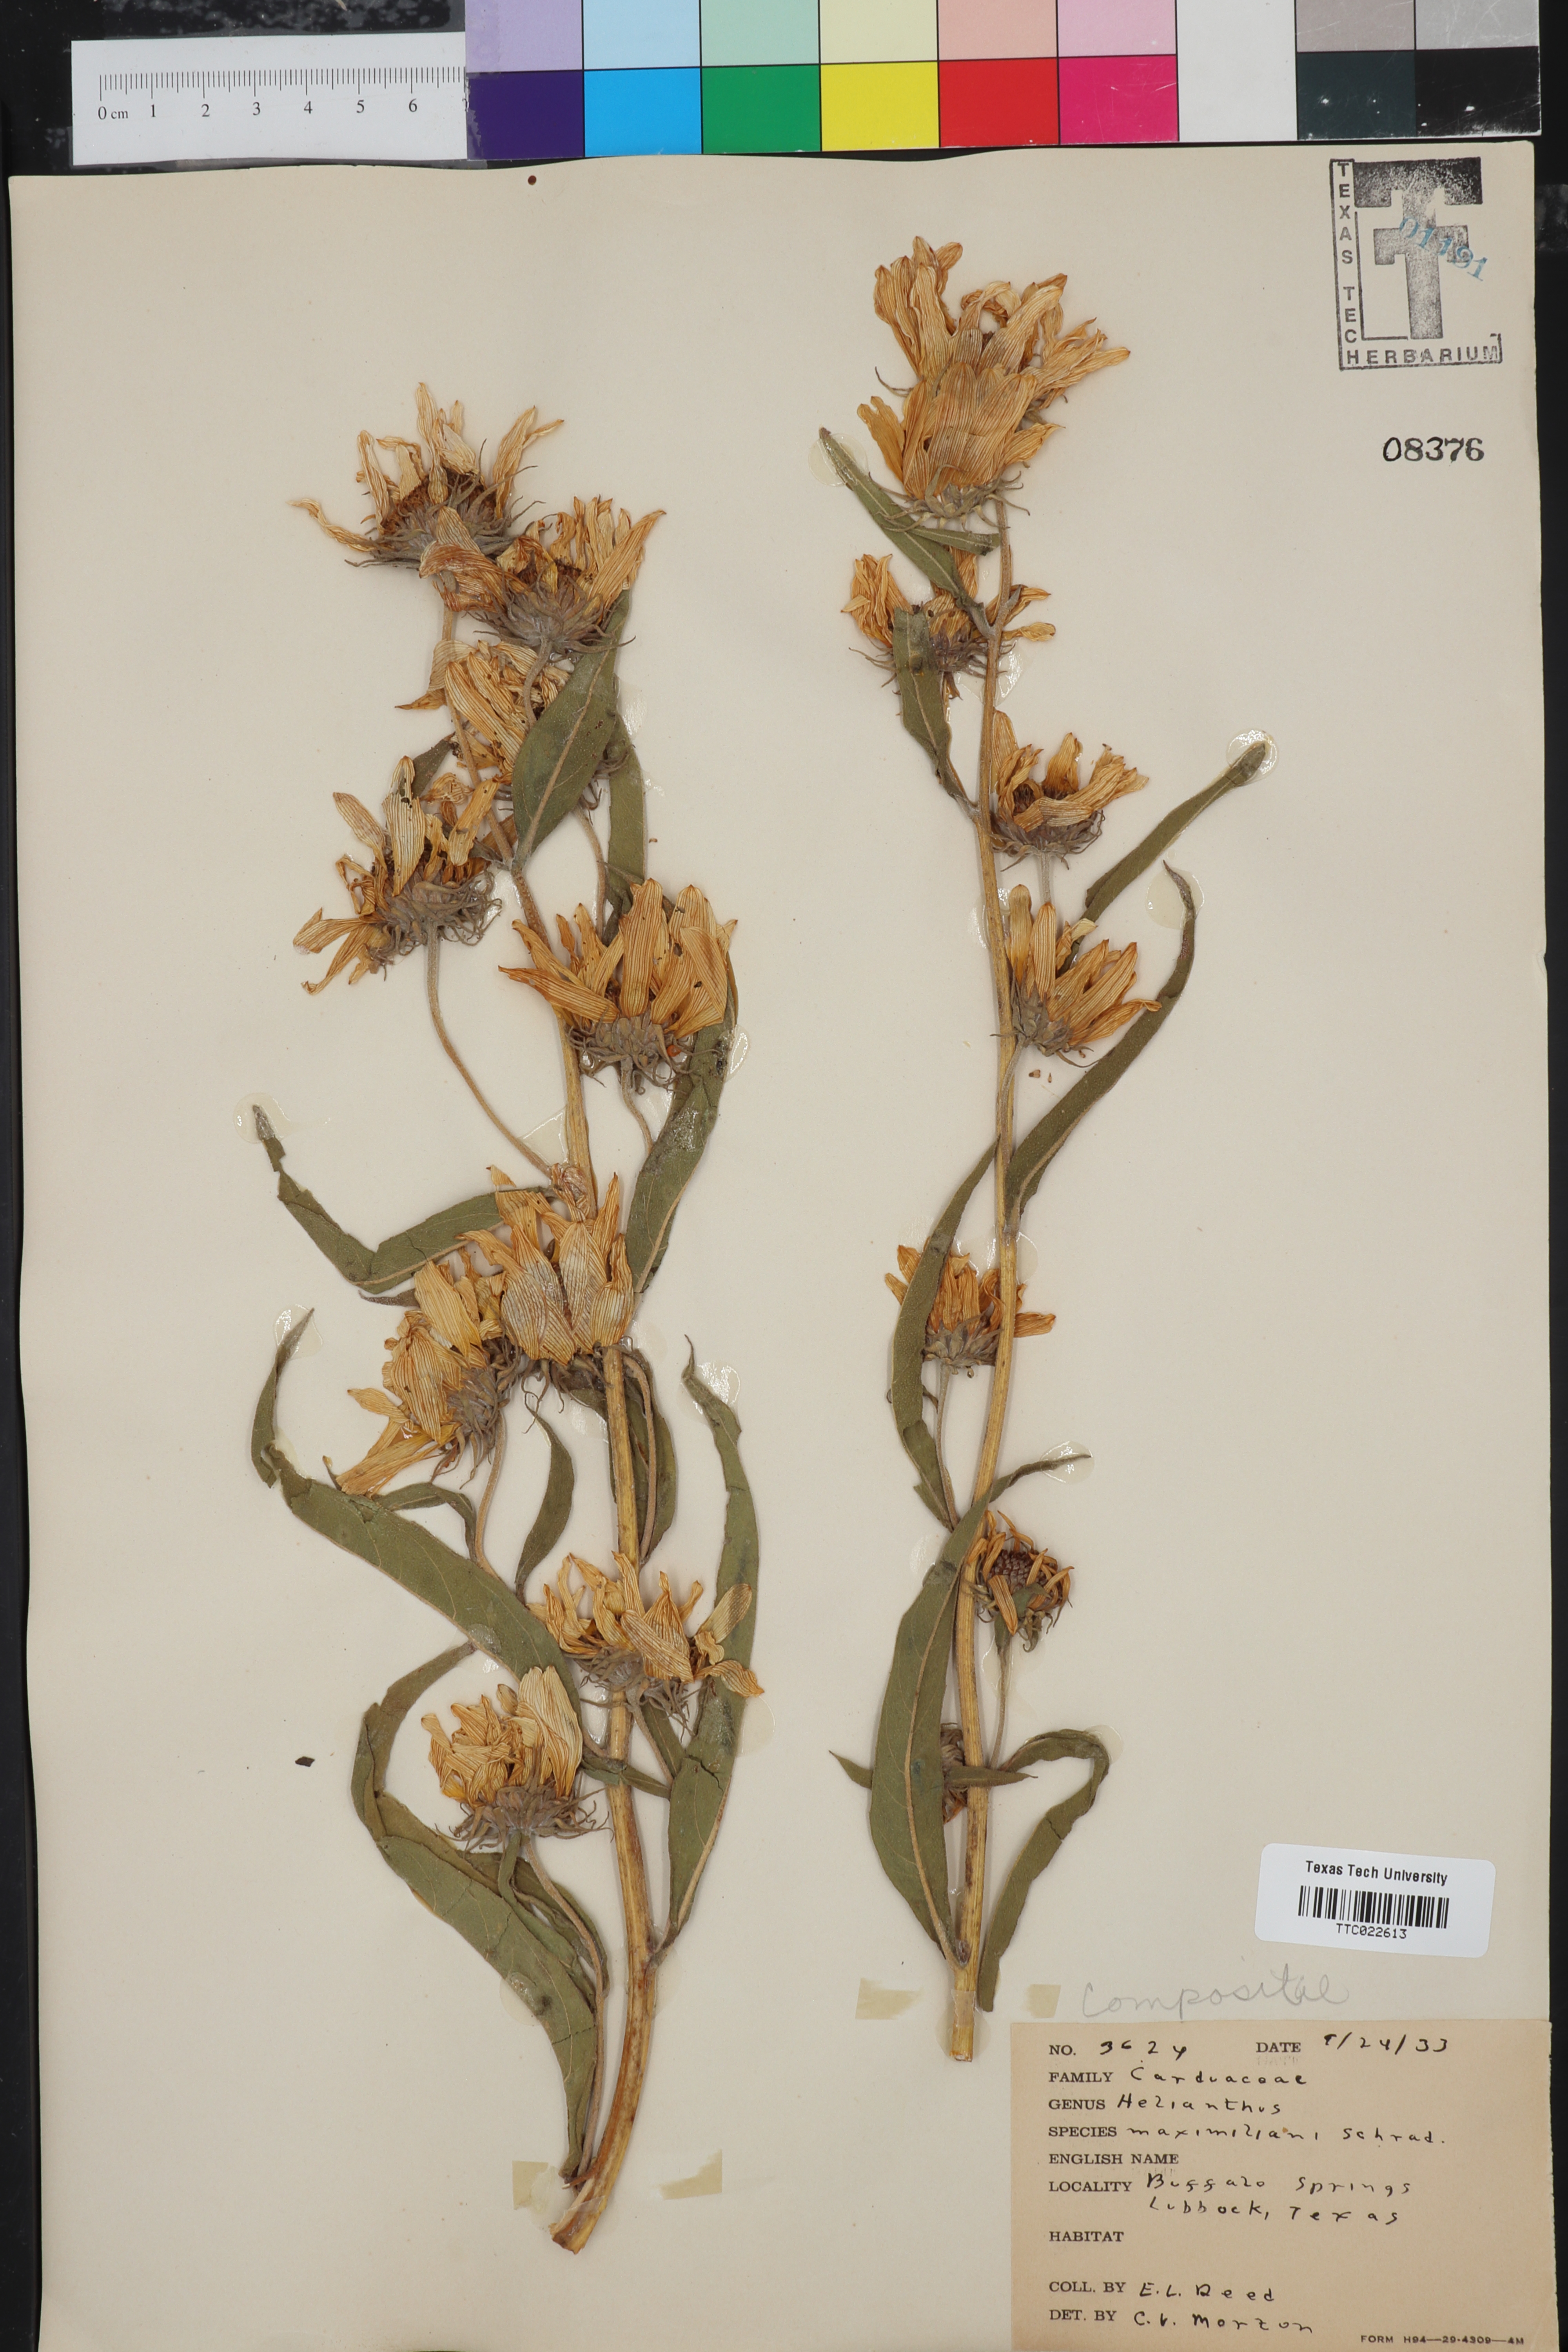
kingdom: Plantae
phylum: Tracheophyta
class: Magnoliopsida
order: Asterales
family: Asteraceae
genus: Helianthus
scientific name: Helianthus maximiliani
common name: Maximilian's sunflower
